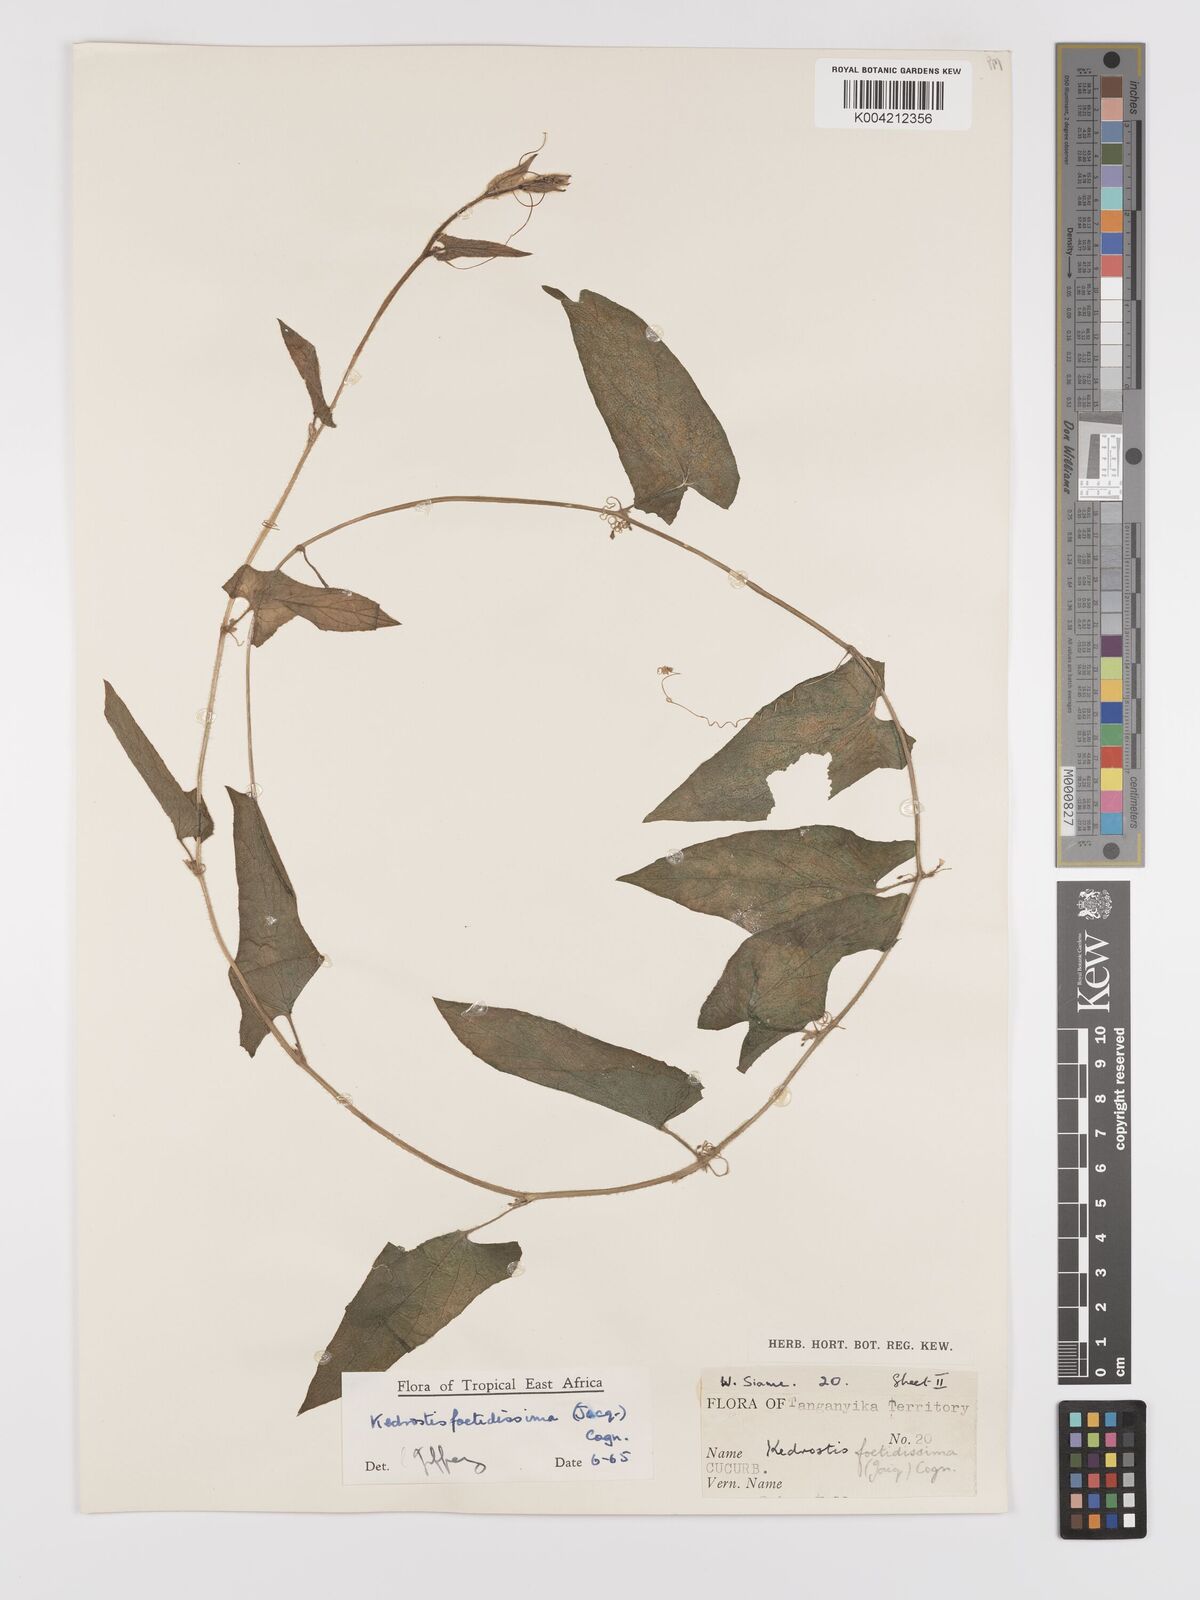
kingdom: Plantae
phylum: Tracheophyta
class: Magnoliopsida
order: Cucurbitales
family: Cucurbitaceae
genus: Kedrostis
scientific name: Kedrostis foetidissima
